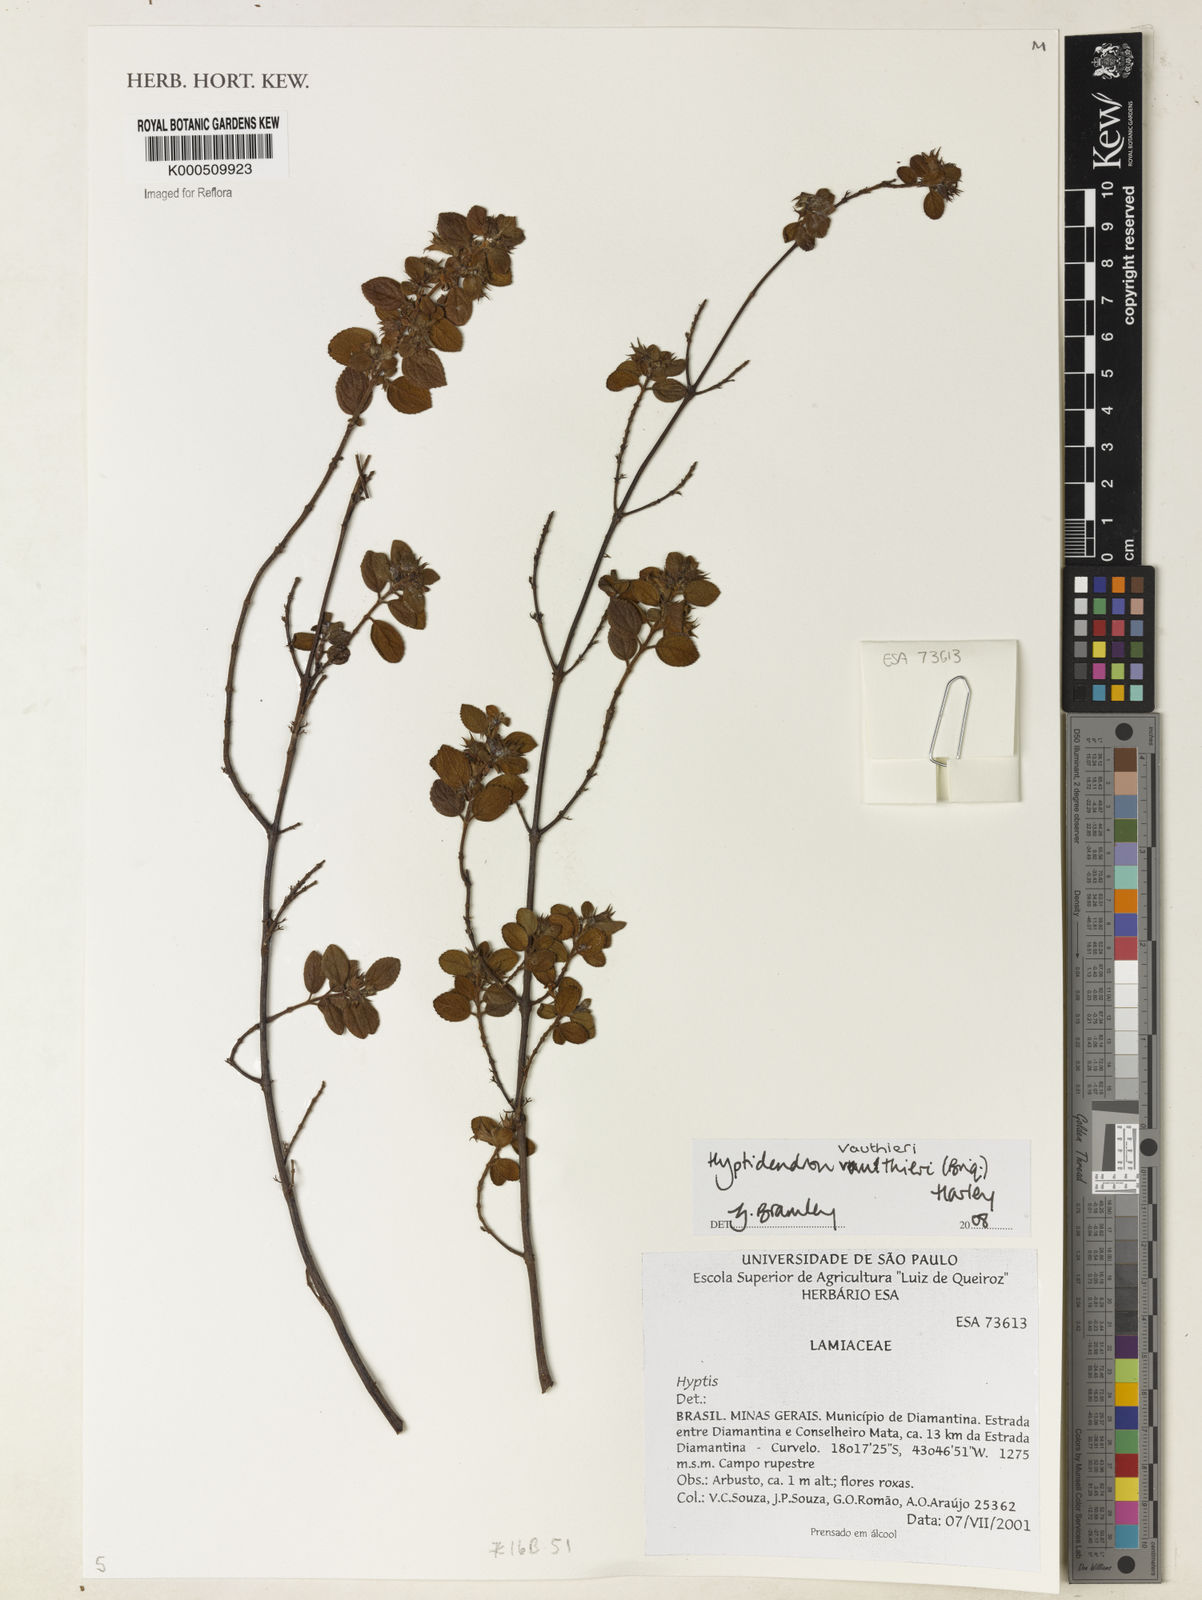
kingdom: Plantae
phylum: Tracheophyta
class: Magnoliopsida
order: Lamiales
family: Lamiaceae
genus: Hyptidendron
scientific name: Hyptidendron vauthieri
